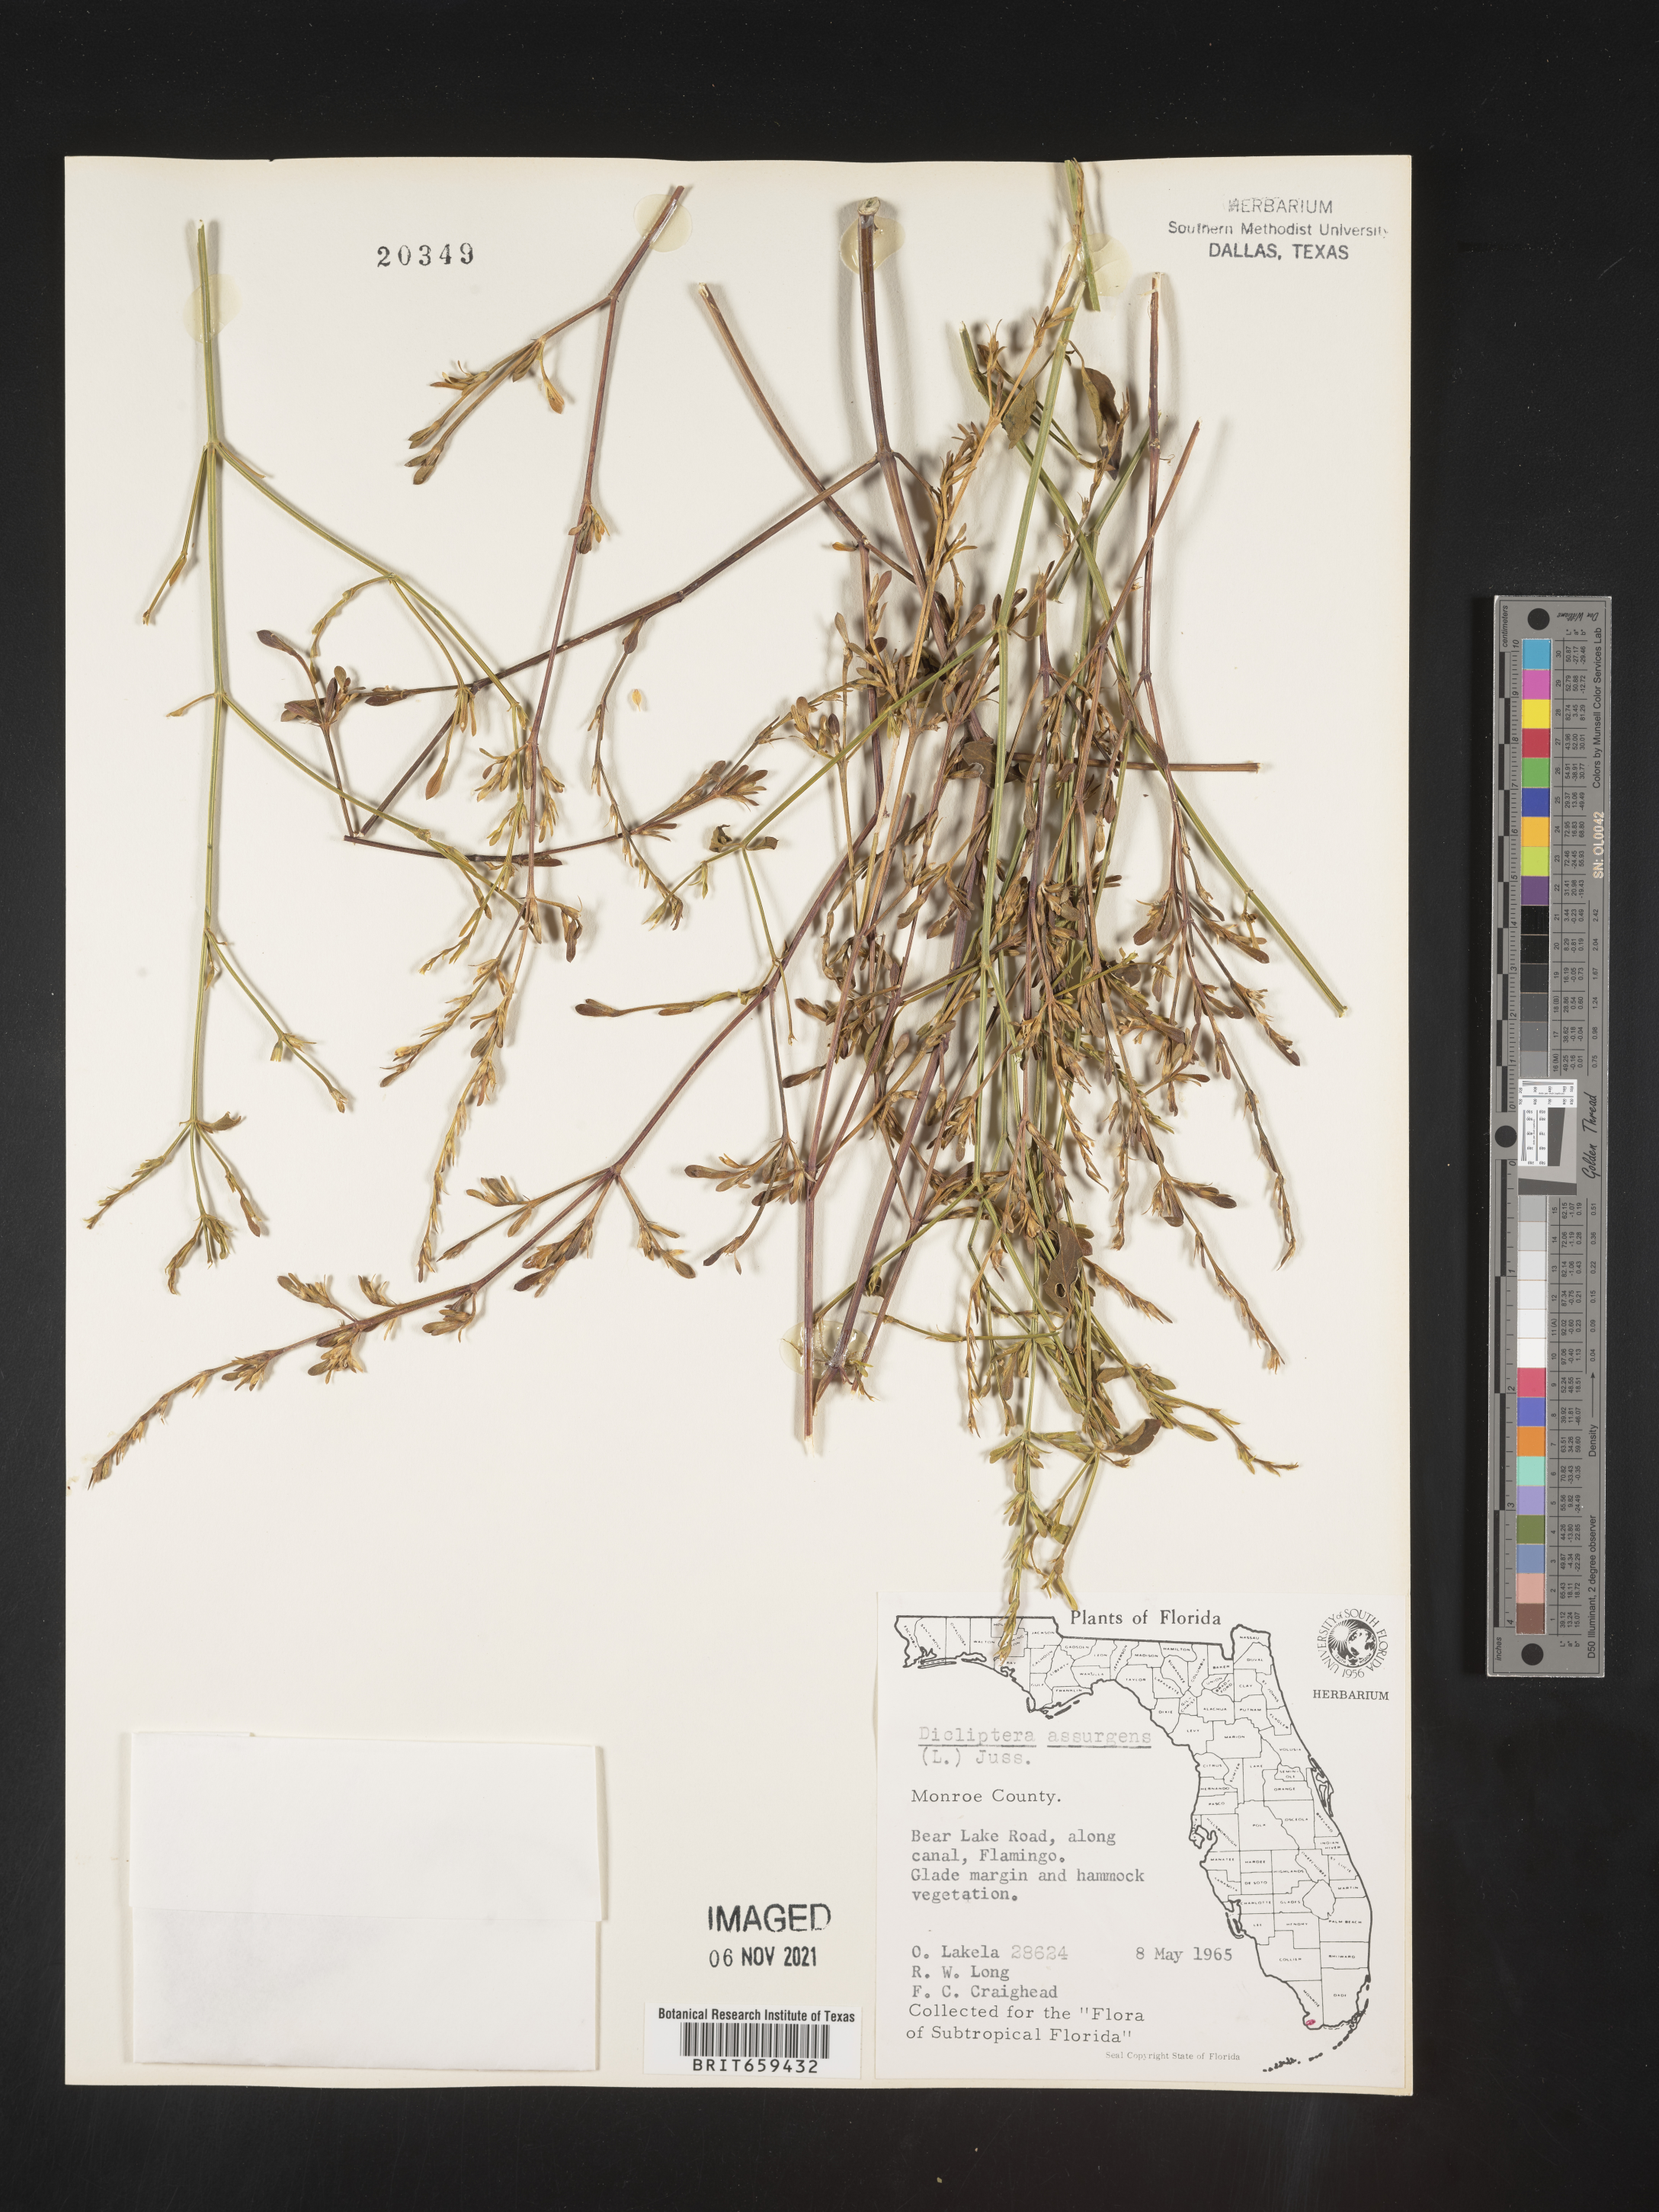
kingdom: Plantae
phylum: Tracheophyta
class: Magnoliopsida
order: Lamiales
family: Acanthaceae
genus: Dicliptera
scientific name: Dicliptera sexangularis
